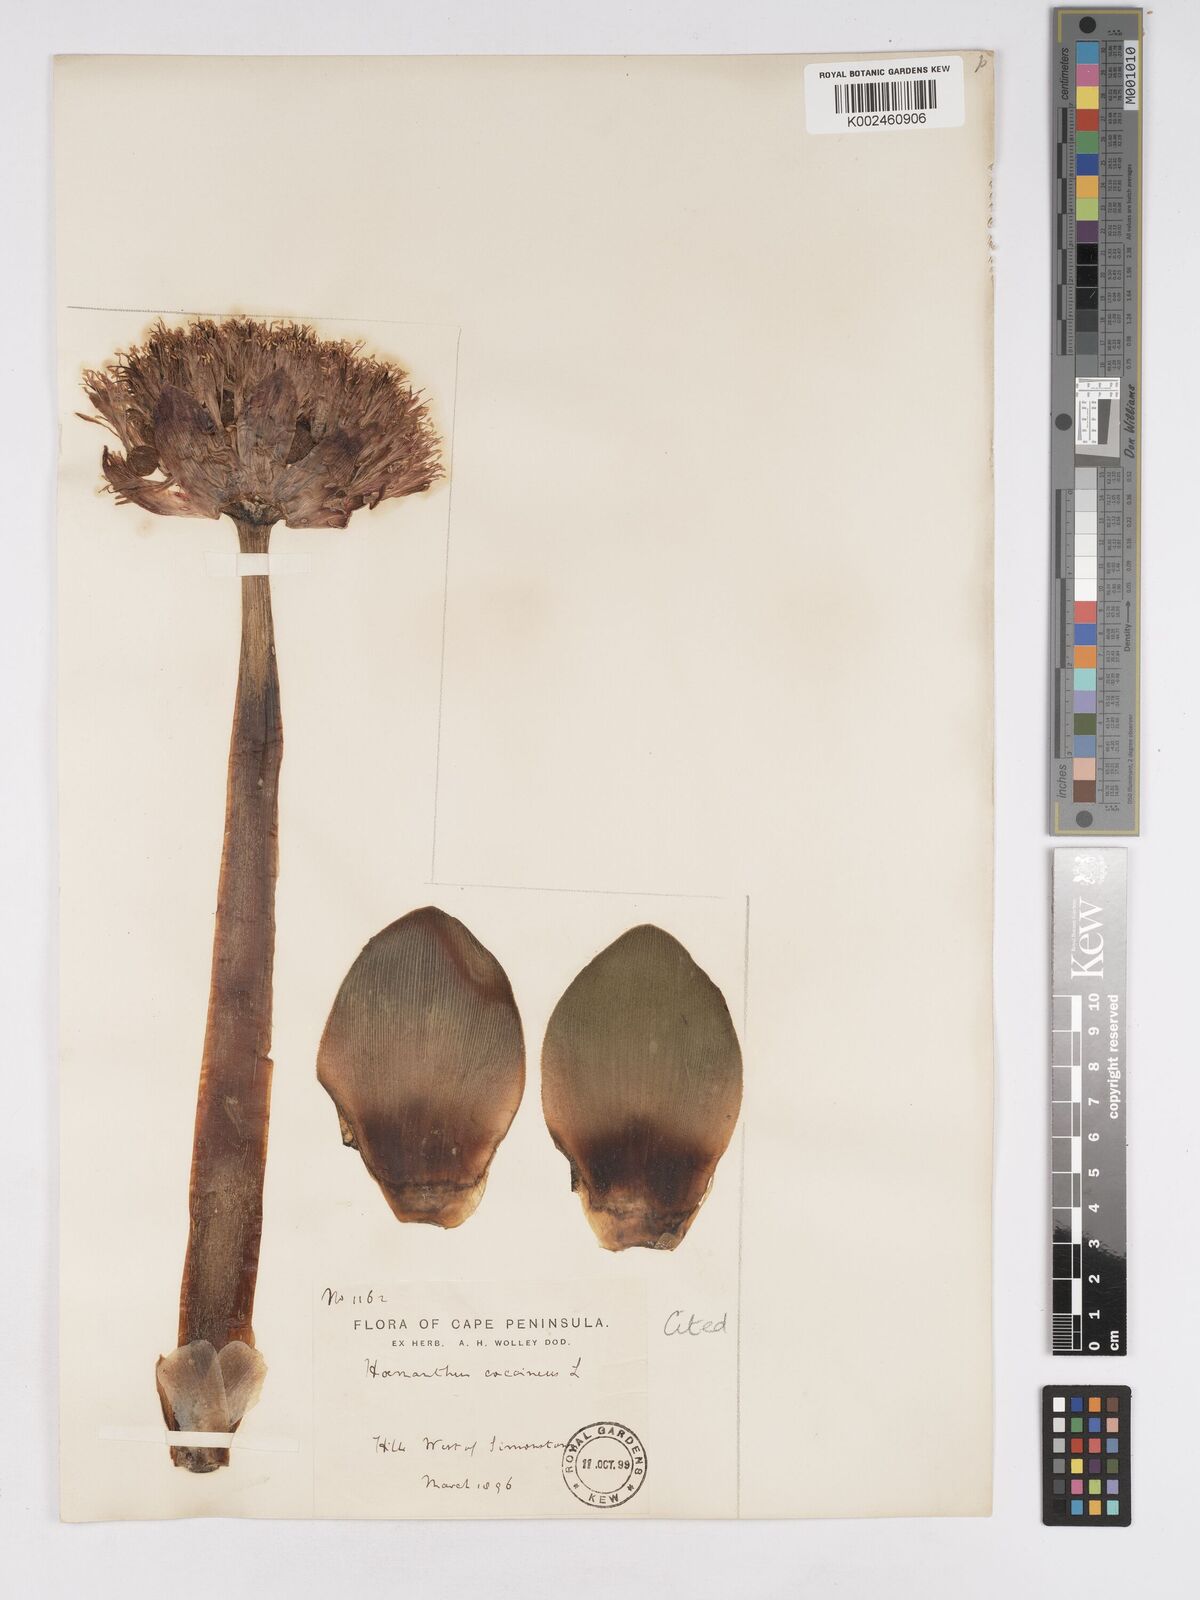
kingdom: Plantae
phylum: Tracheophyta
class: Liliopsida
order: Asparagales
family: Amaryllidaceae
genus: Haemanthus
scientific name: Haemanthus sanguineus
